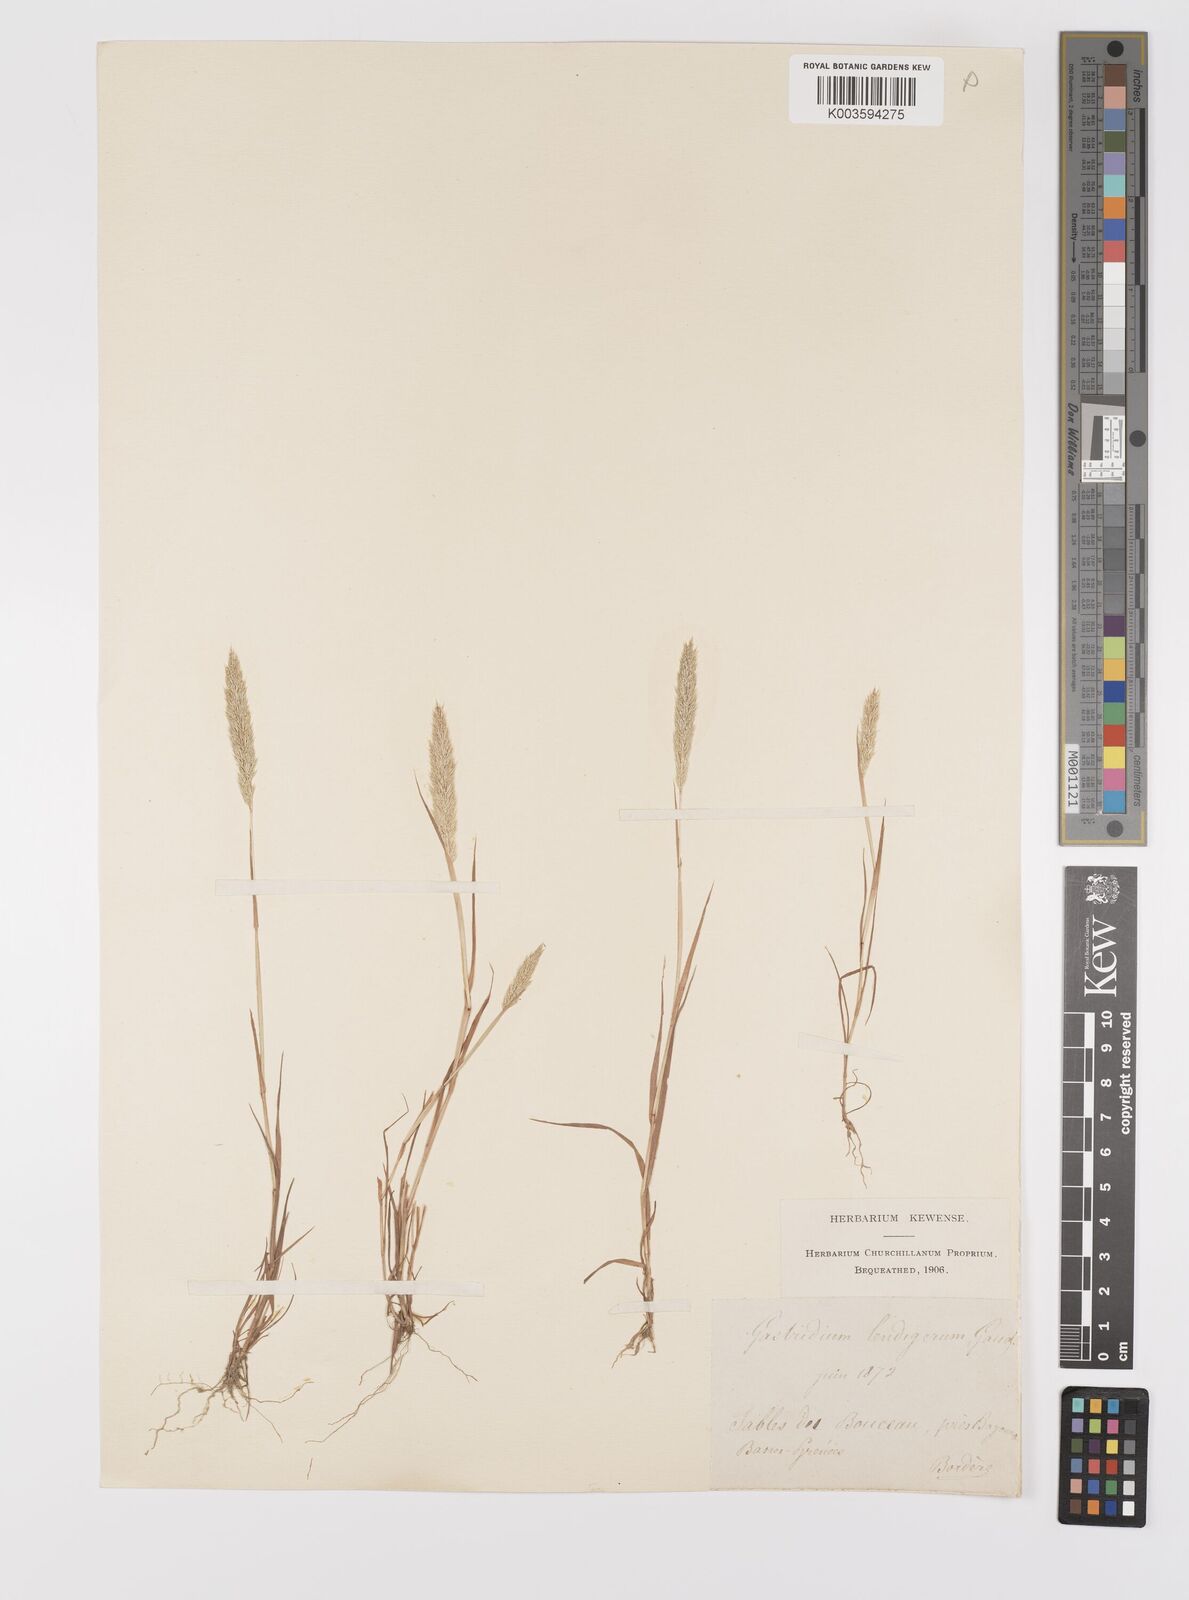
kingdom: Plantae
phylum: Tracheophyta
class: Liliopsida
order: Poales
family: Poaceae
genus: Gastridium
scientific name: Gastridium ventricosum
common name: Nit-grass
